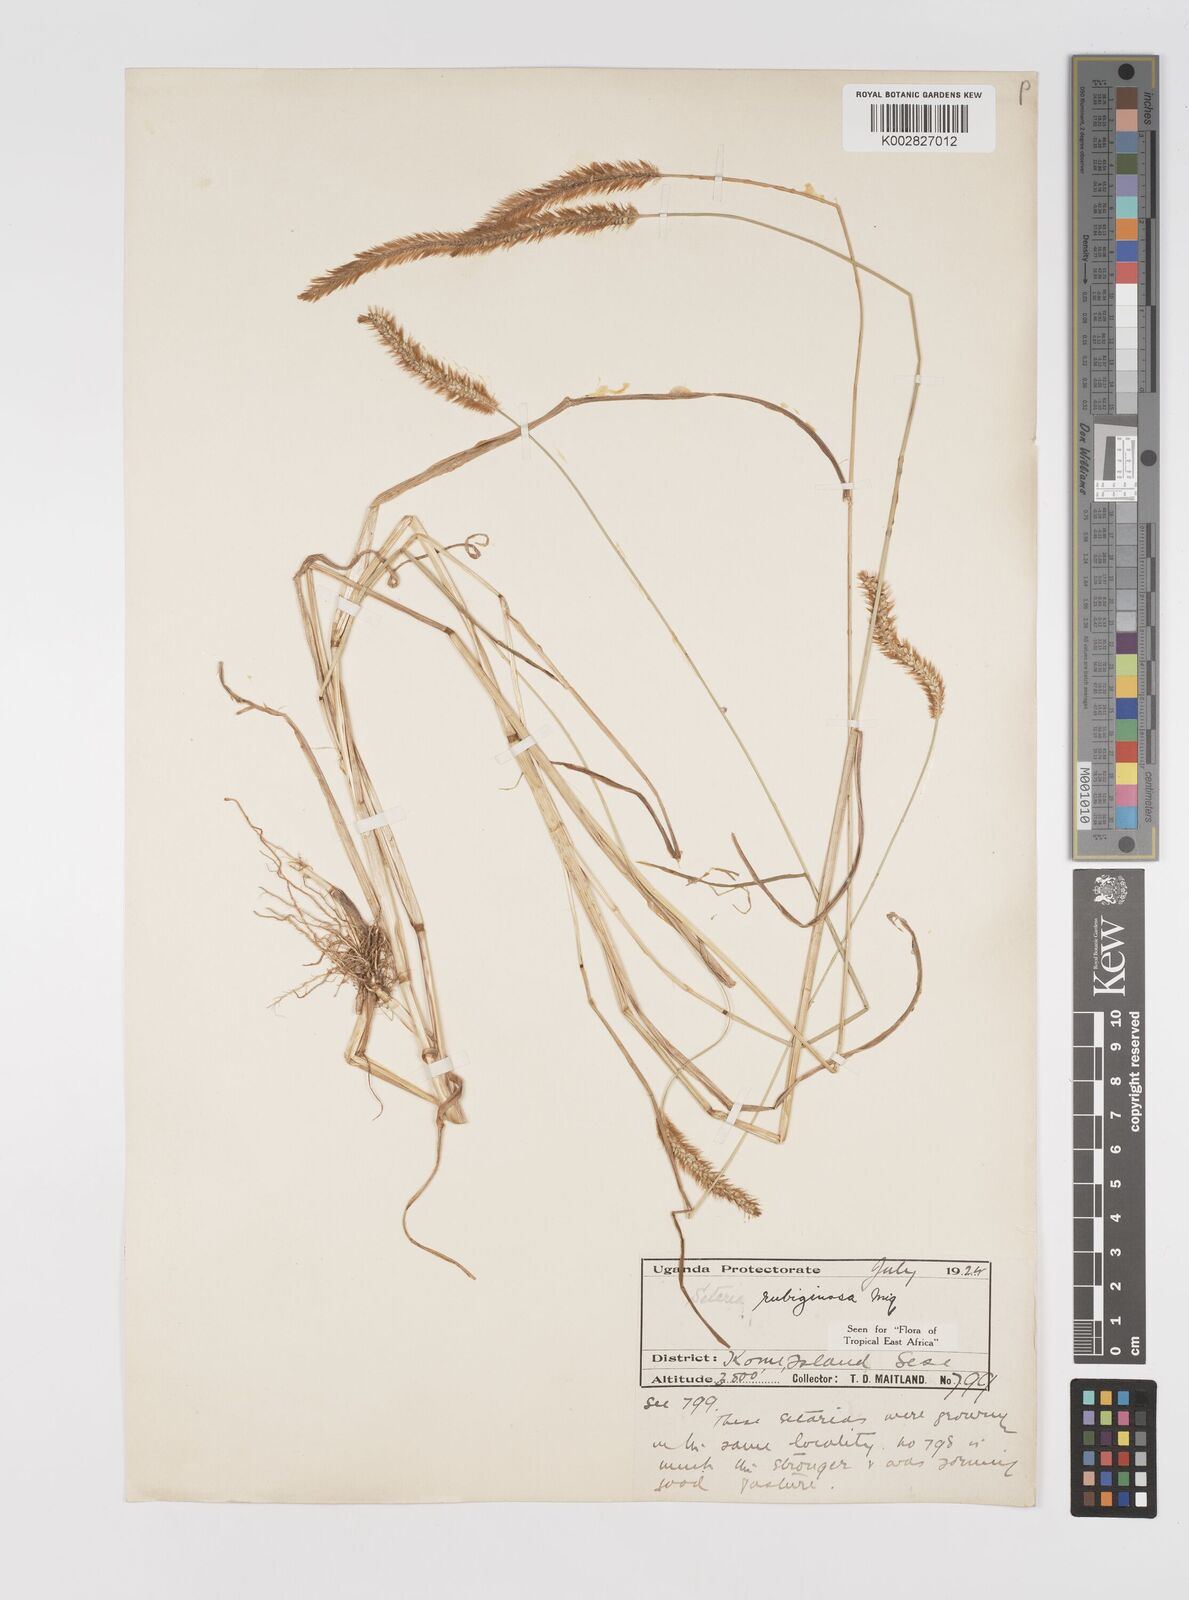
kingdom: Plantae
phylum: Tracheophyta
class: Liliopsida
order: Poales
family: Poaceae
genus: Setaria
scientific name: Setaria pumila
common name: Yellow bristle-grass
